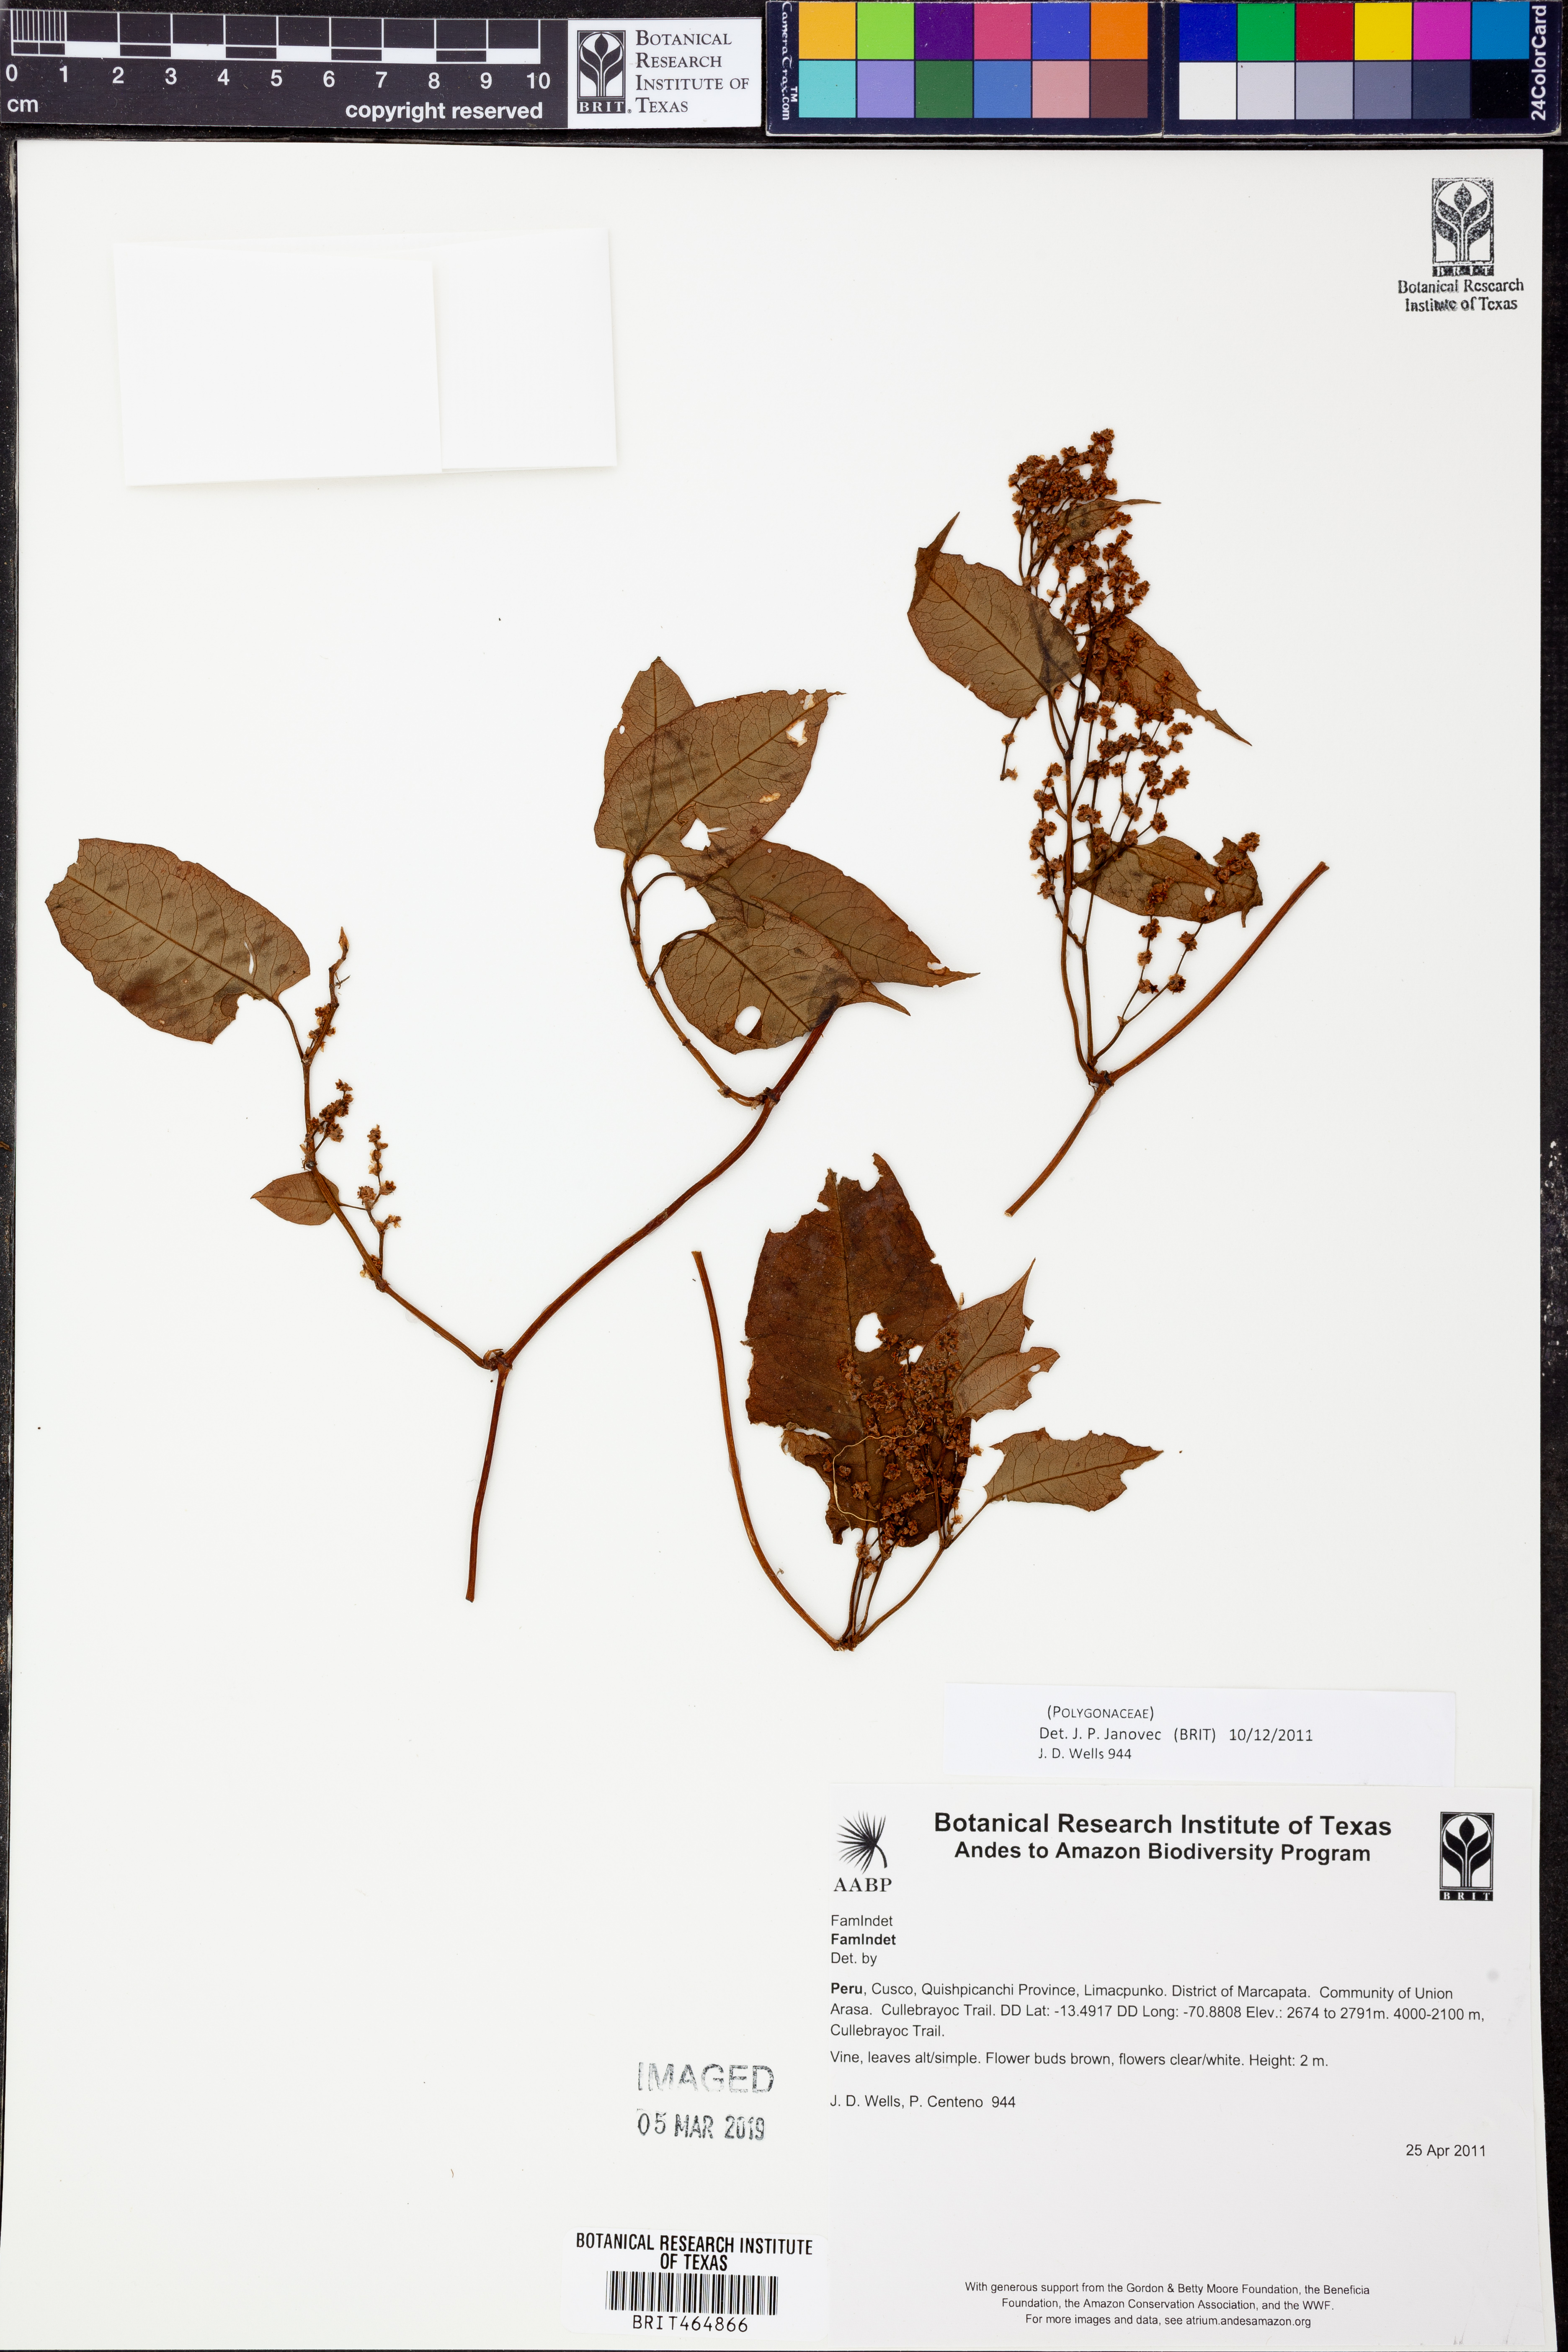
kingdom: Plantae
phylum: Tracheophyta
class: Magnoliopsida
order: Caryophyllales
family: Polygonaceae
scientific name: Polygonaceae
